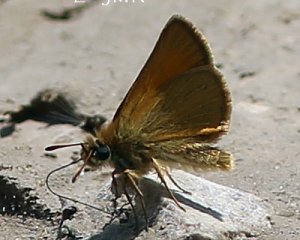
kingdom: Animalia
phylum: Arthropoda
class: Insecta
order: Lepidoptera
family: Hesperiidae
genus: Thymelicus
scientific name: Thymelicus lineola
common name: European Skipper
